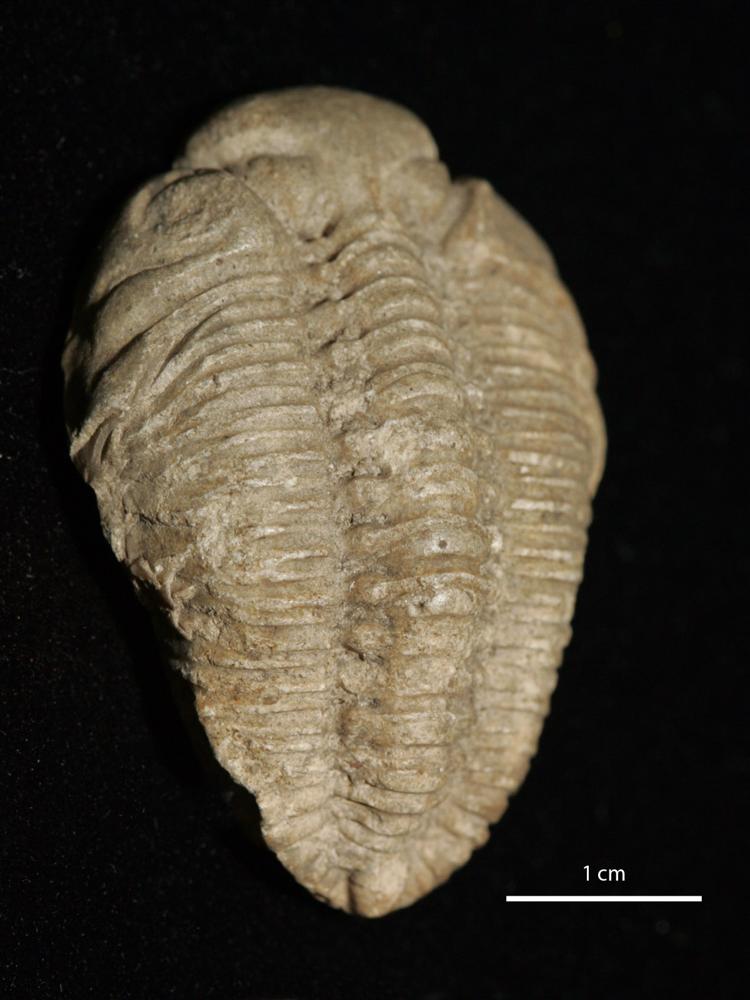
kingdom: Animalia
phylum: Arthropoda
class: Trilobita
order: Phacopida
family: Pterygometopidae
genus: Chasmops
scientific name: Chasmops odini
